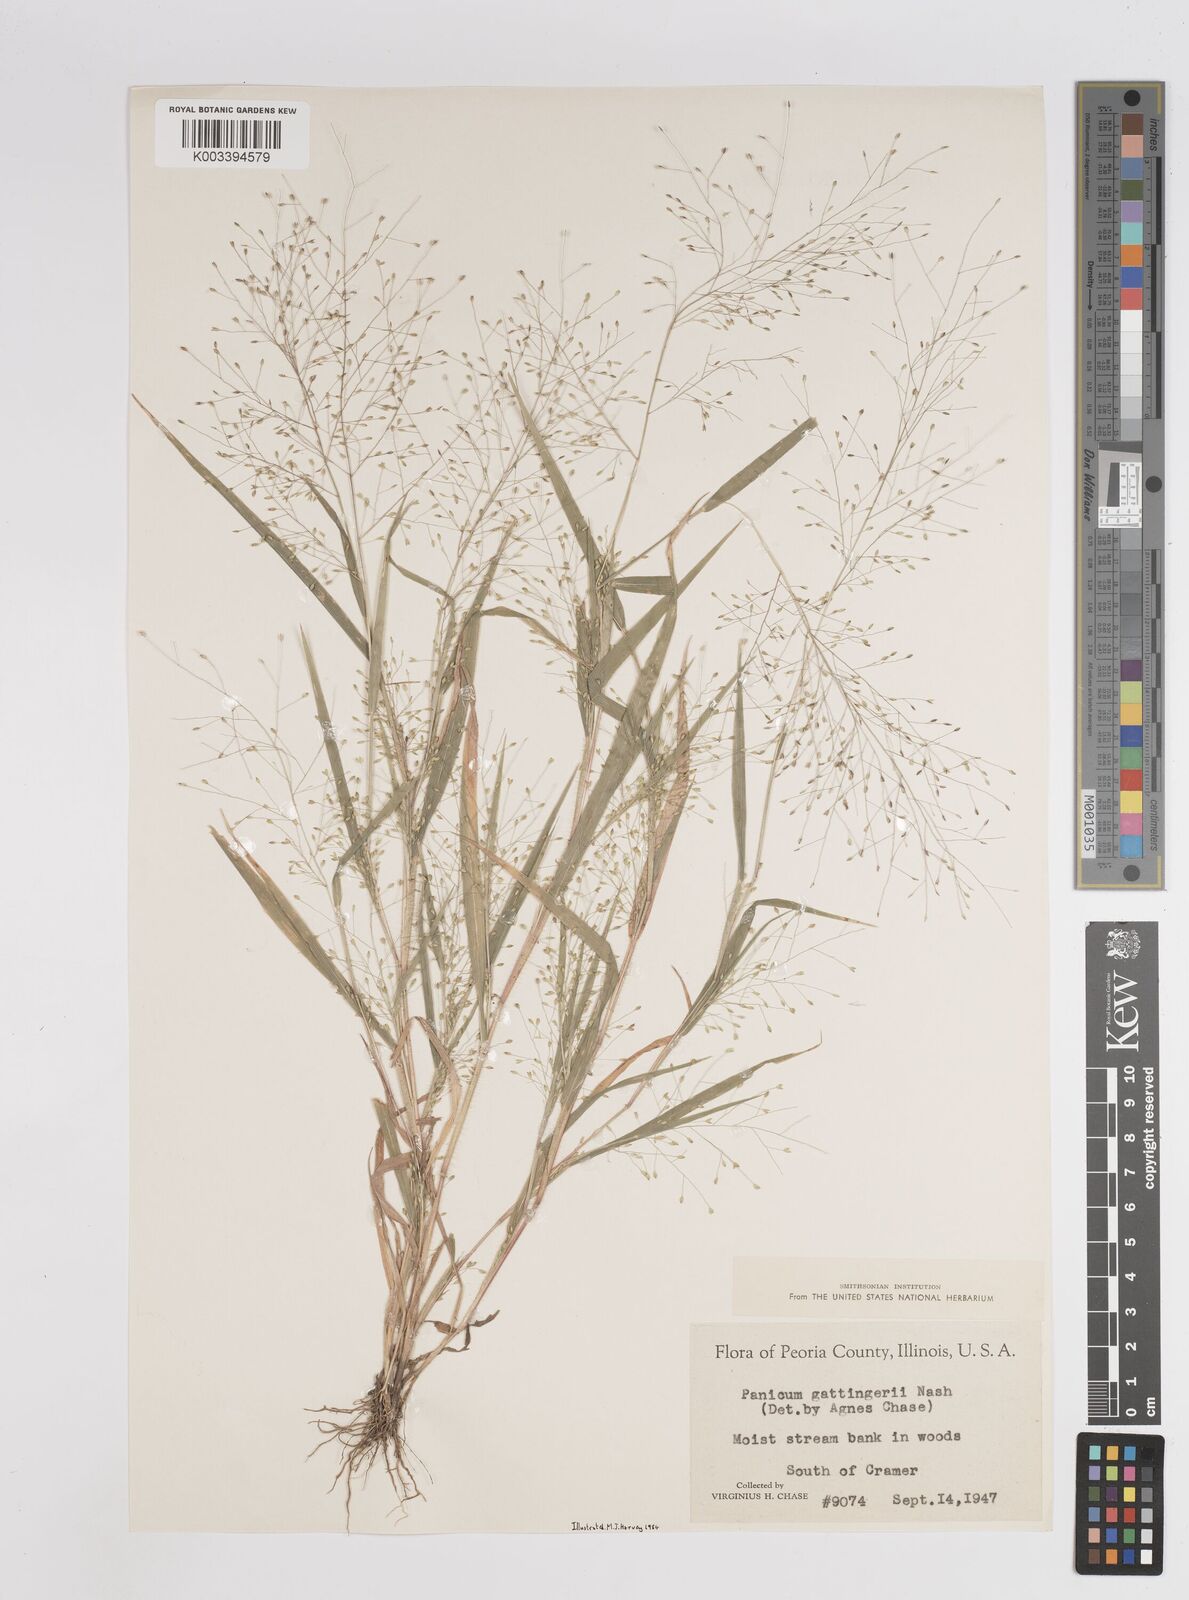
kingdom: Plantae
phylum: Tracheophyta
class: Liliopsida
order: Poales
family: Poaceae
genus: Panicum
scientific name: Panicum gattingeri
